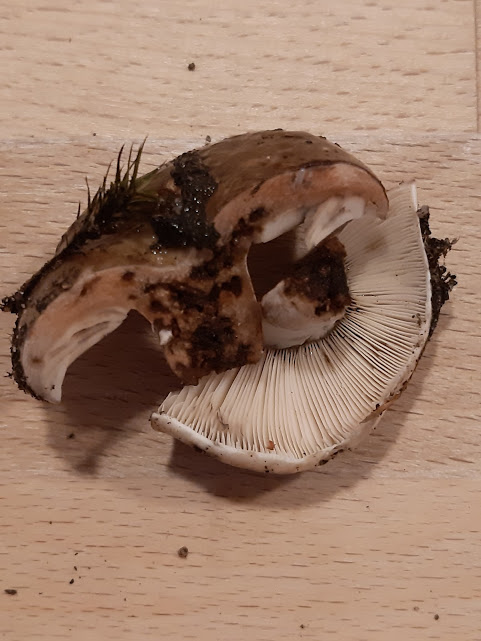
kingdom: Fungi
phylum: Basidiomycota
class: Agaricomycetes
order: Russulales
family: Russulaceae
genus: Russula
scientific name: Russula densifolia
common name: tætbladet skørhat
